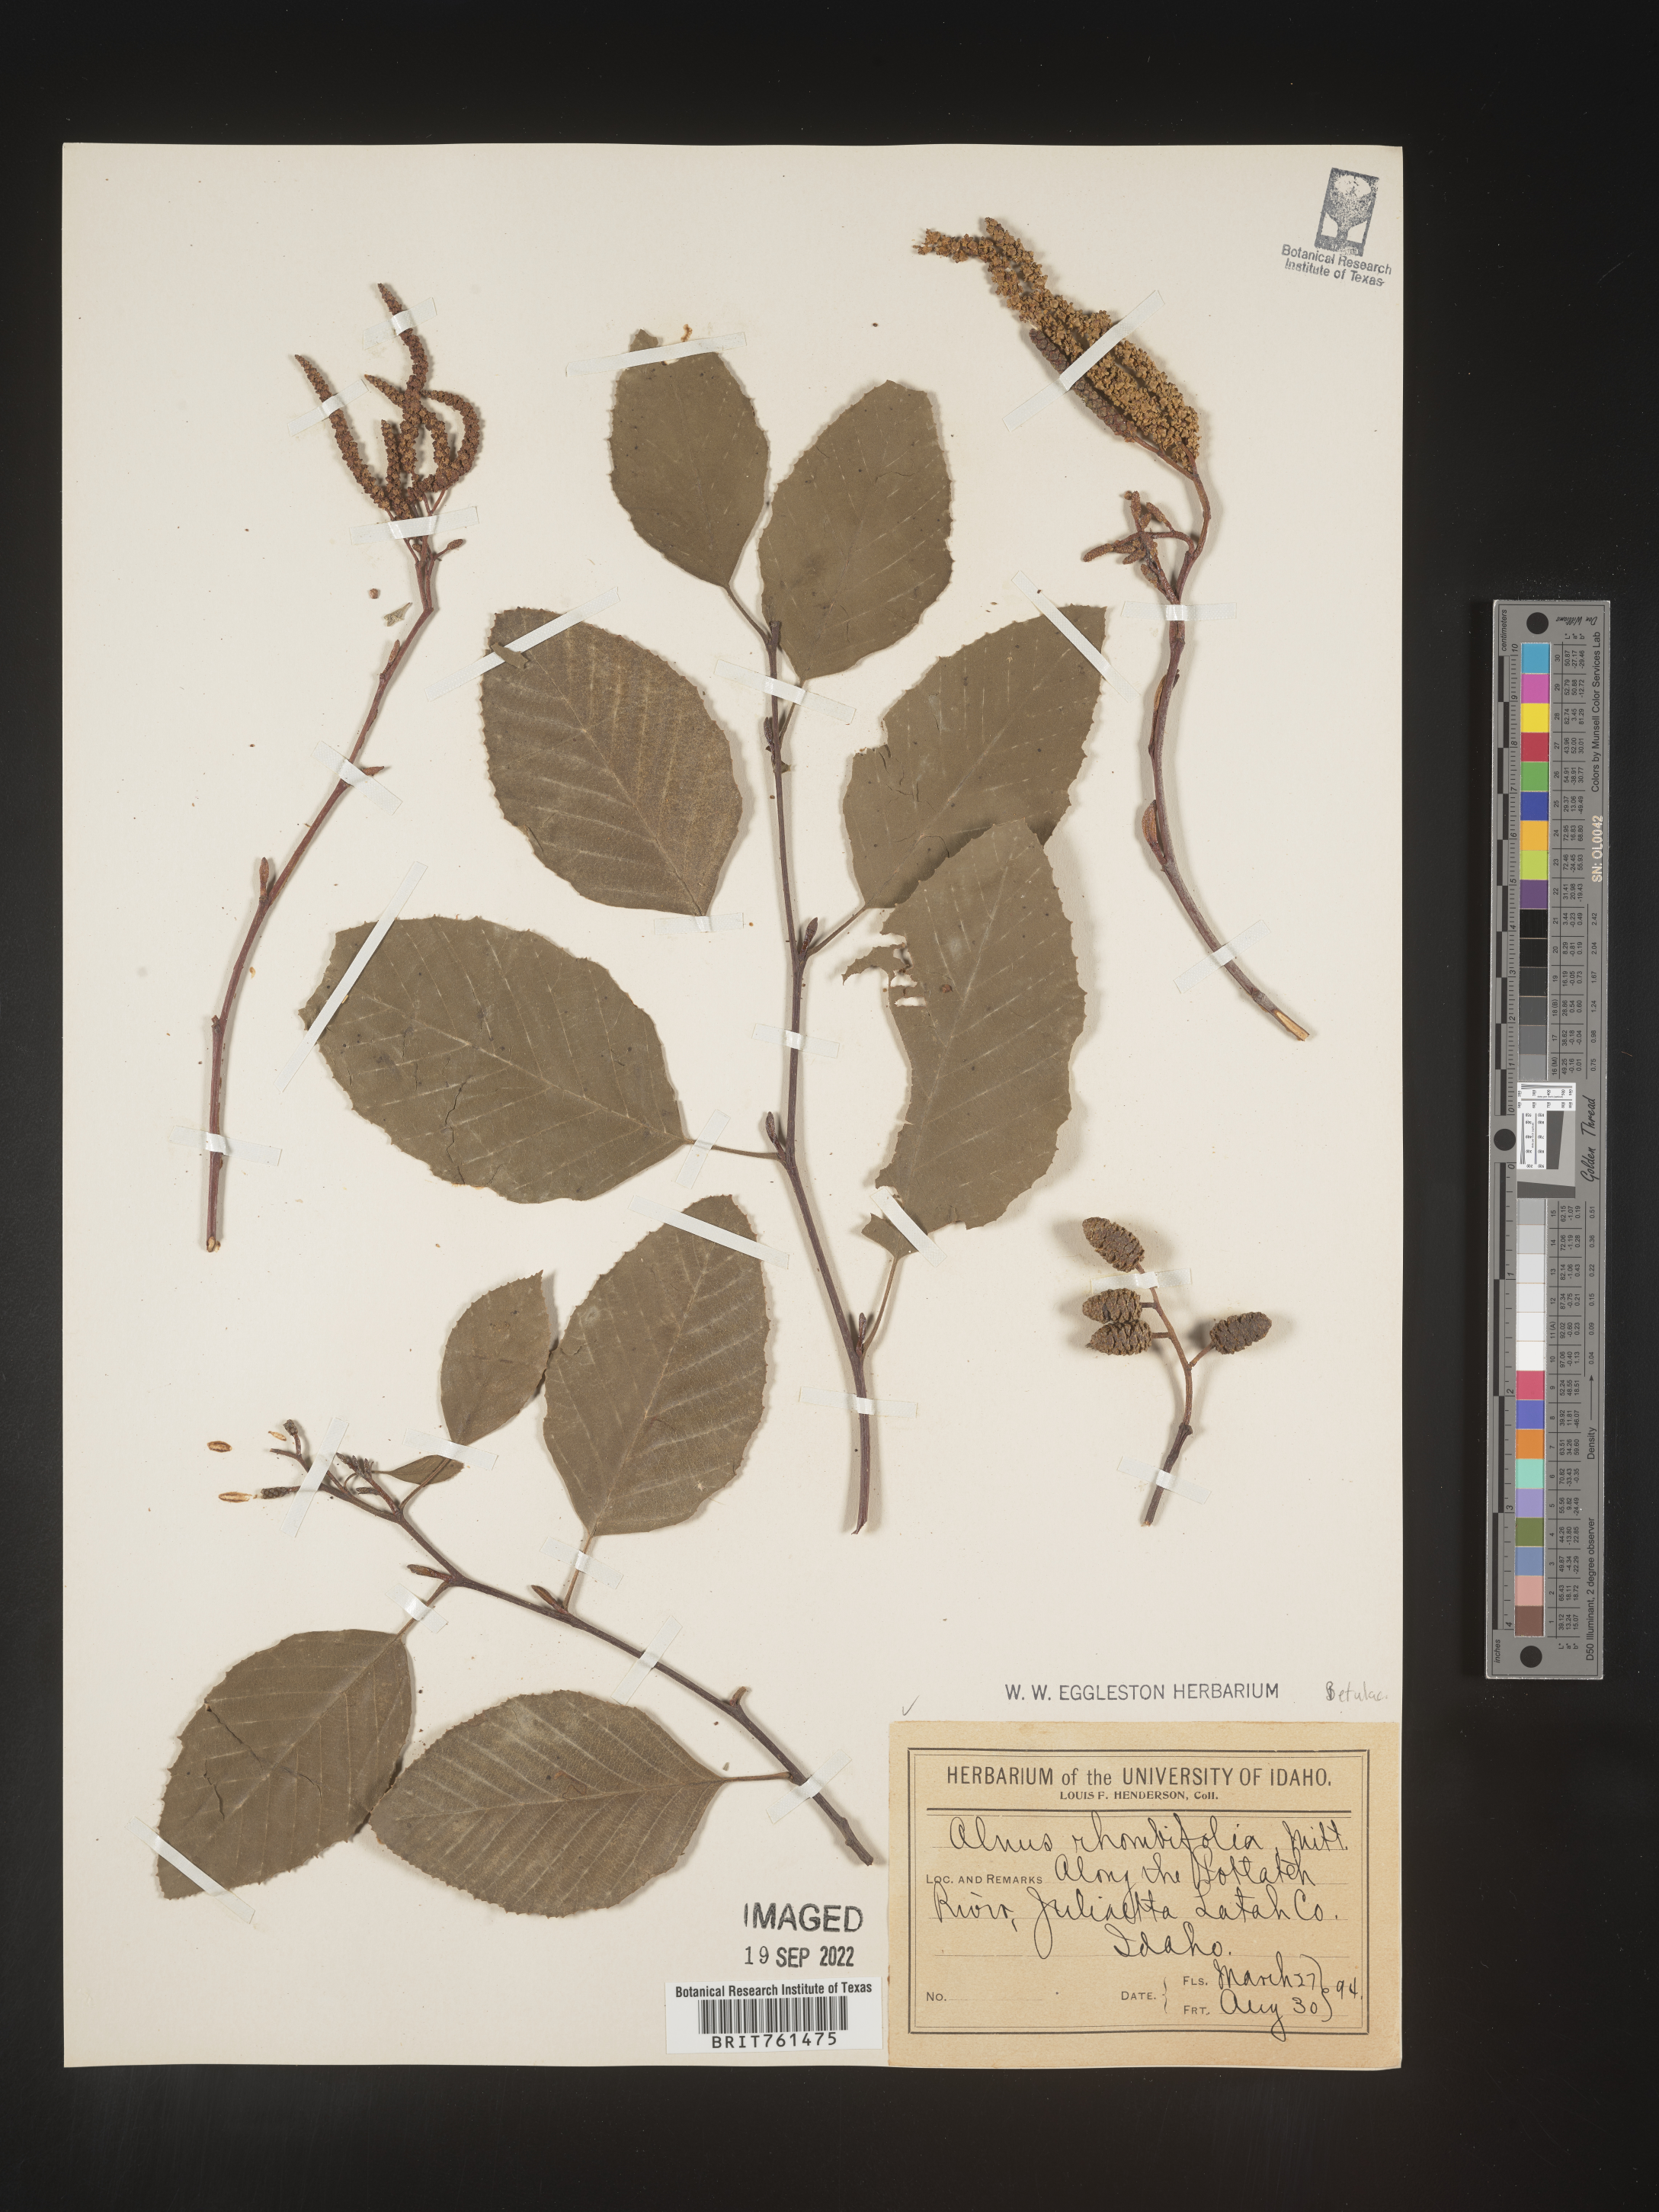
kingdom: Plantae
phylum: Tracheophyta
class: Magnoliopsida
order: Fagales
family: Betulaceae
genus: Alnus
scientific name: Alnus rhombifolia
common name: California alder
